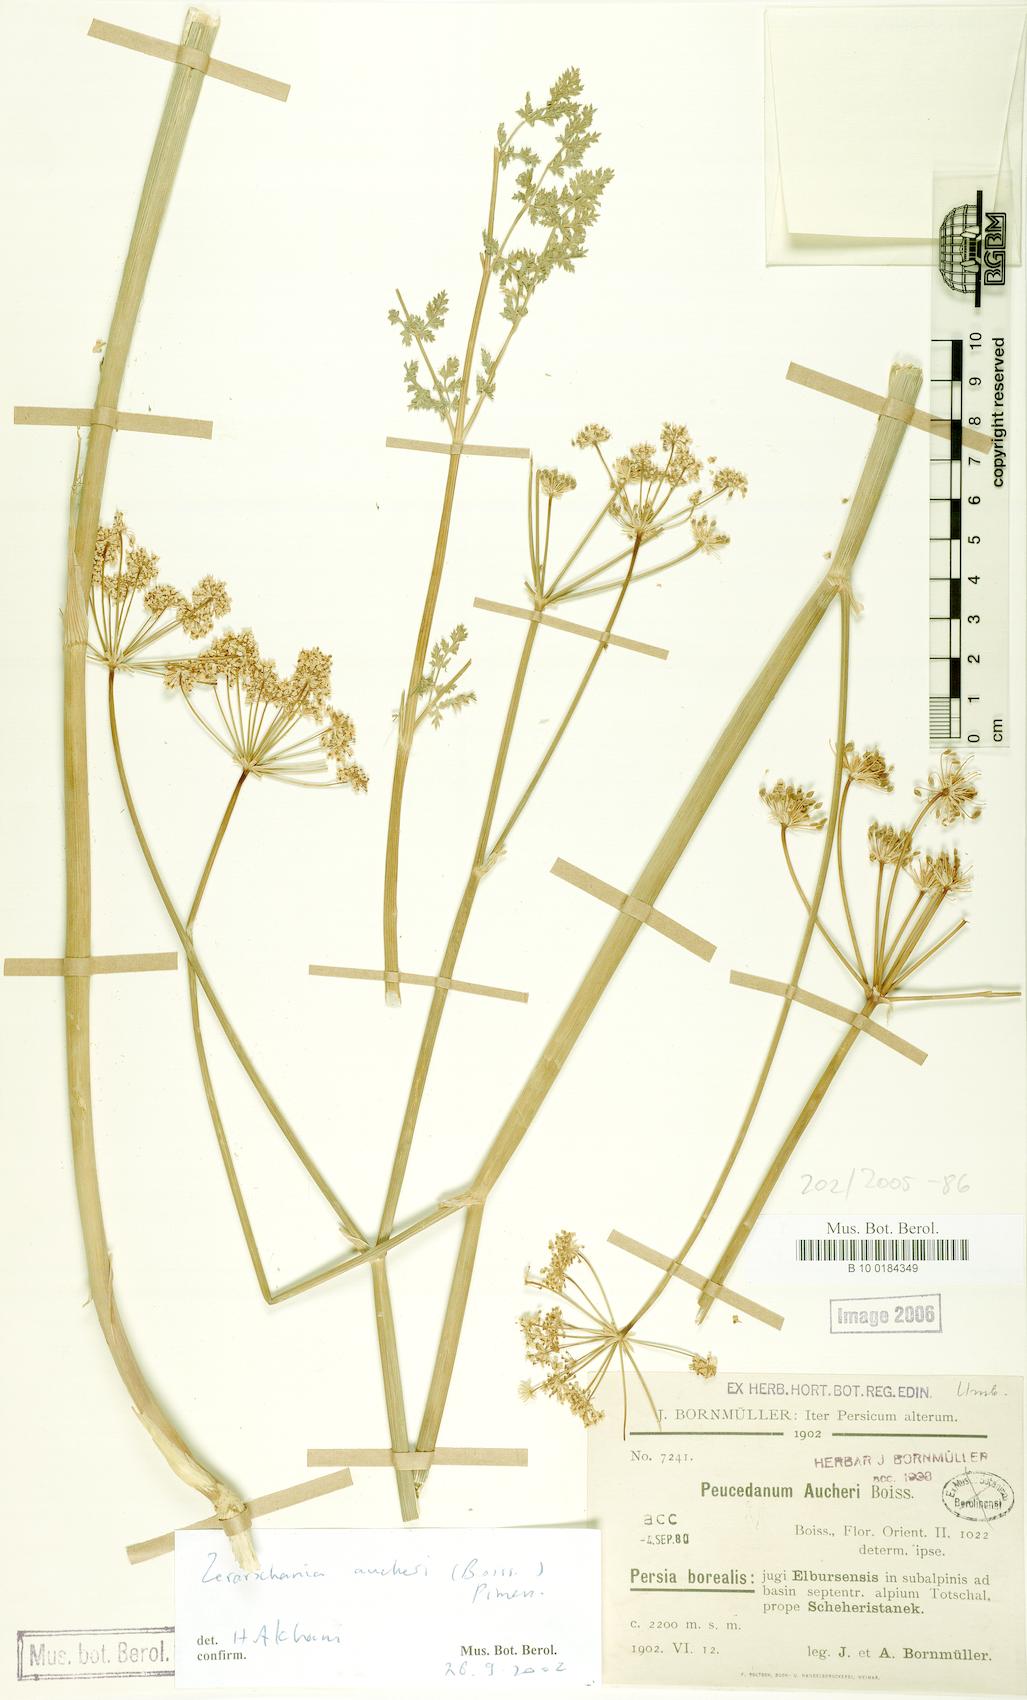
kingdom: Plantae
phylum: Tracheophyta
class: Magnoliopsida
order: Apiales
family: Apiaceae
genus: Zeravschania
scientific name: Zeravschania aucheri
